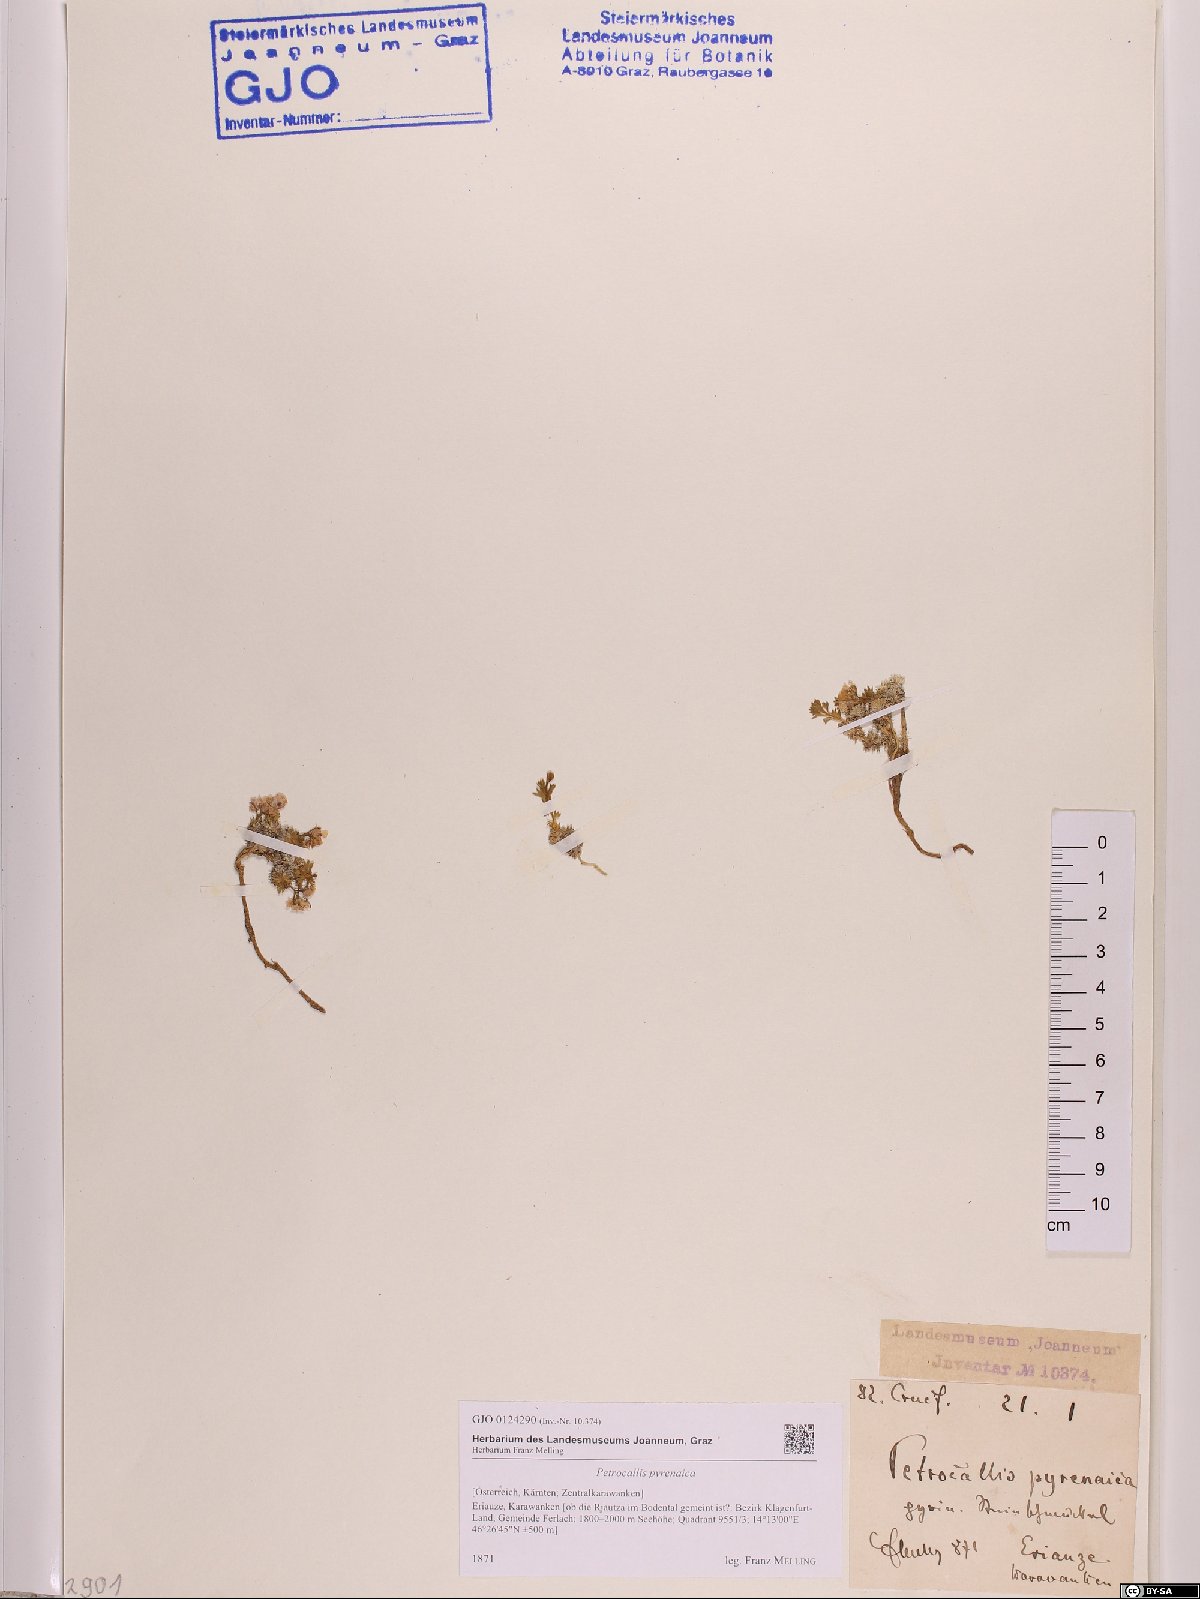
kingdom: Plantae
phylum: Tracheophyta
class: Magnoliopsida
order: Brassicales
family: Brassicaceae
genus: Petrocallis
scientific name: Petrocallis pyrenaica
